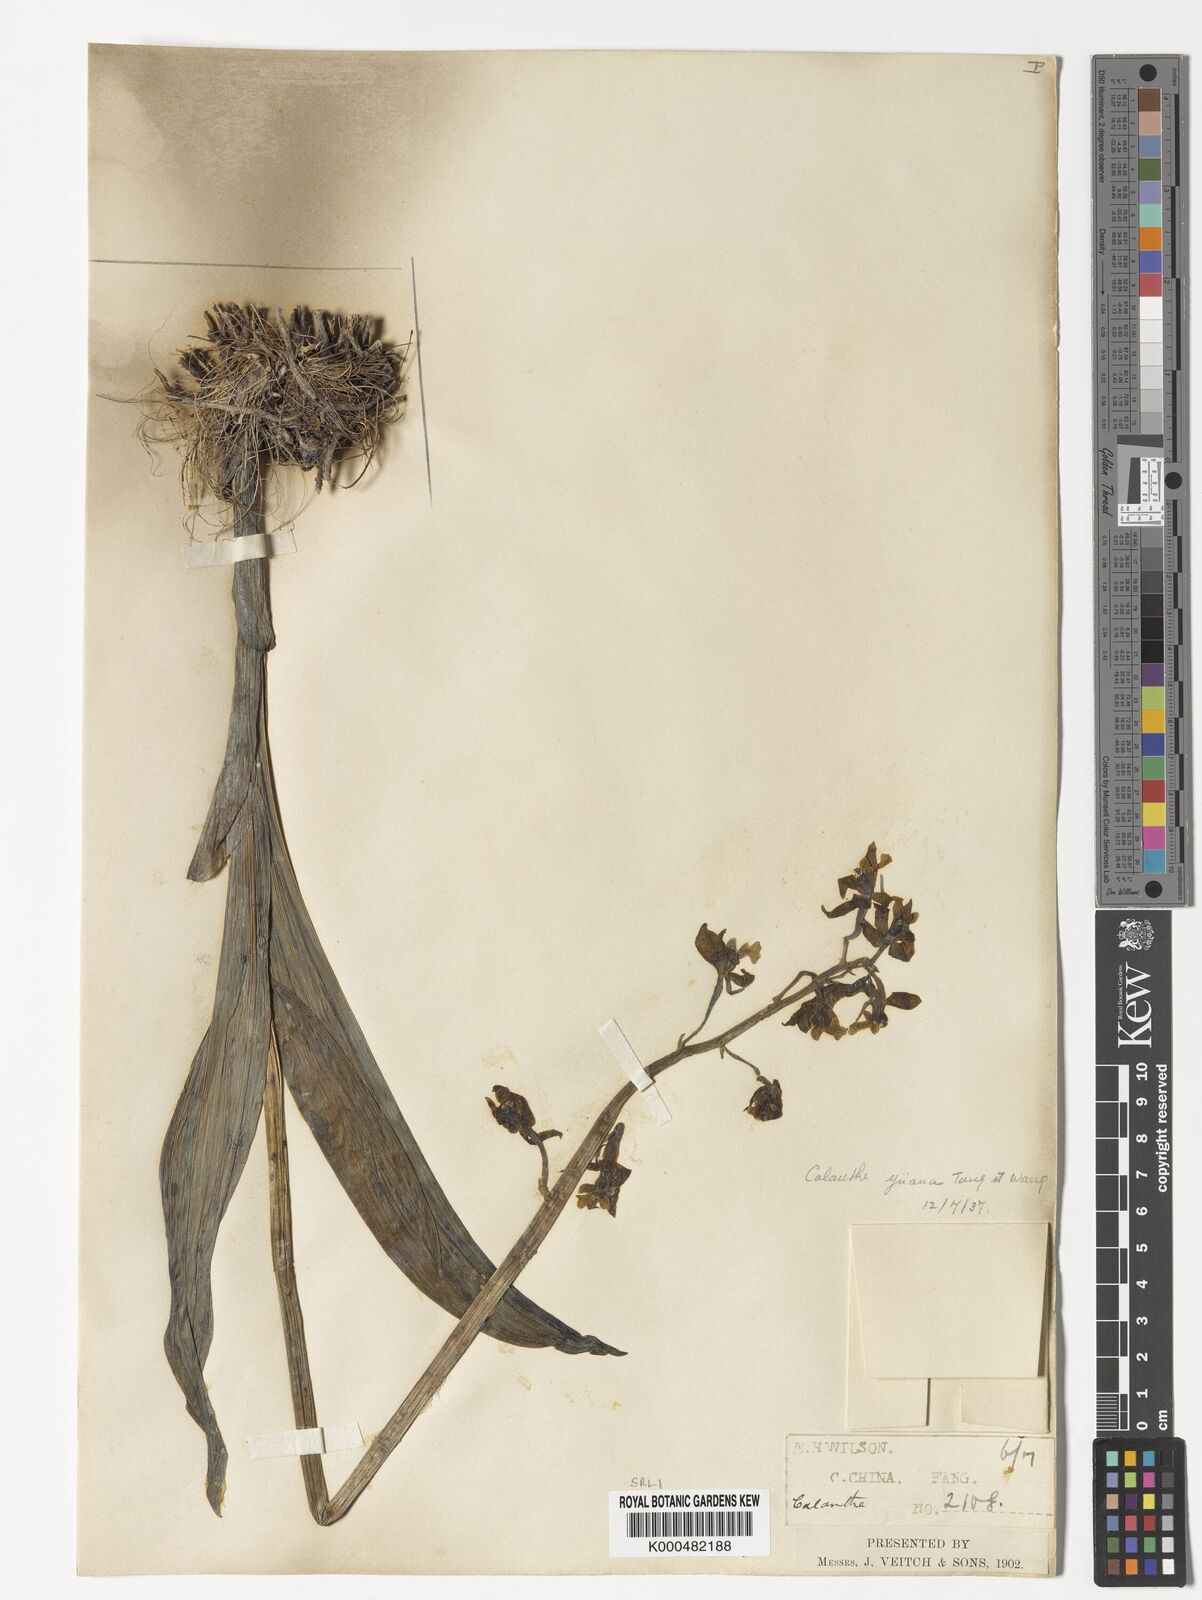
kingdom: Plantae
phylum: Tracheophyta
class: Liliopsida
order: Asparagales
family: Orchidaceae
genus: Calanthe
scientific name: Calanthe
